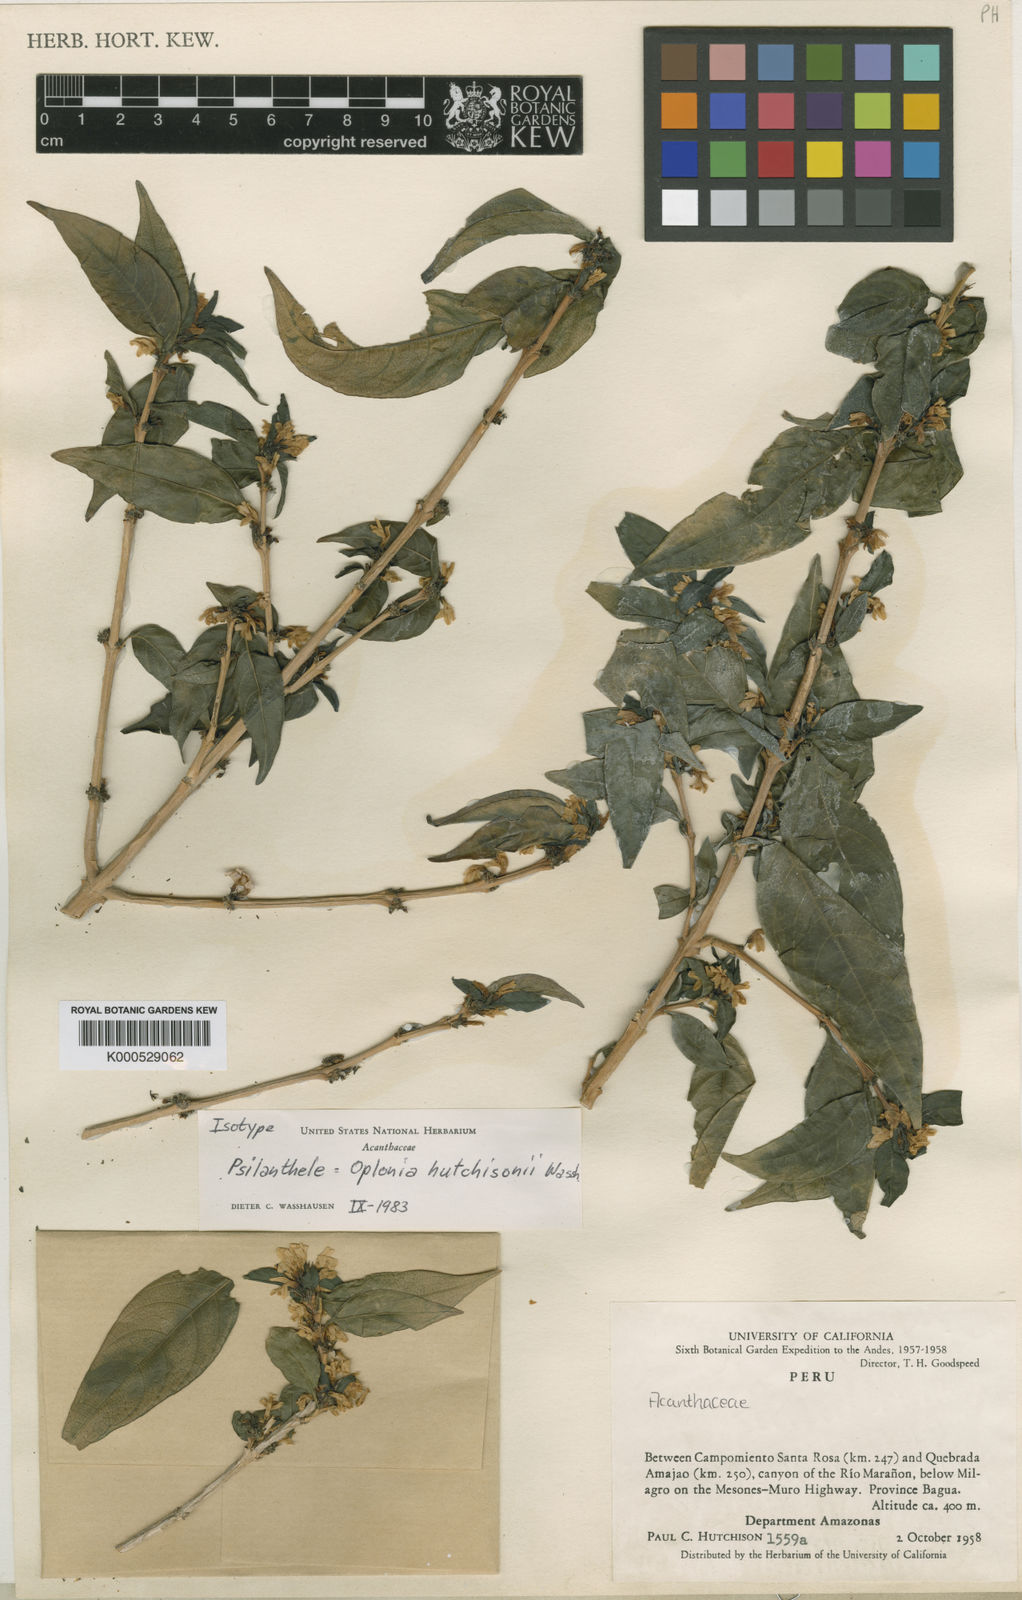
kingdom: Plantae
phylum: Tracheophyta
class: Magnoliopsida
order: Lamiales
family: Acanthaceae
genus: Psilanthele
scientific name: Psilanthele
